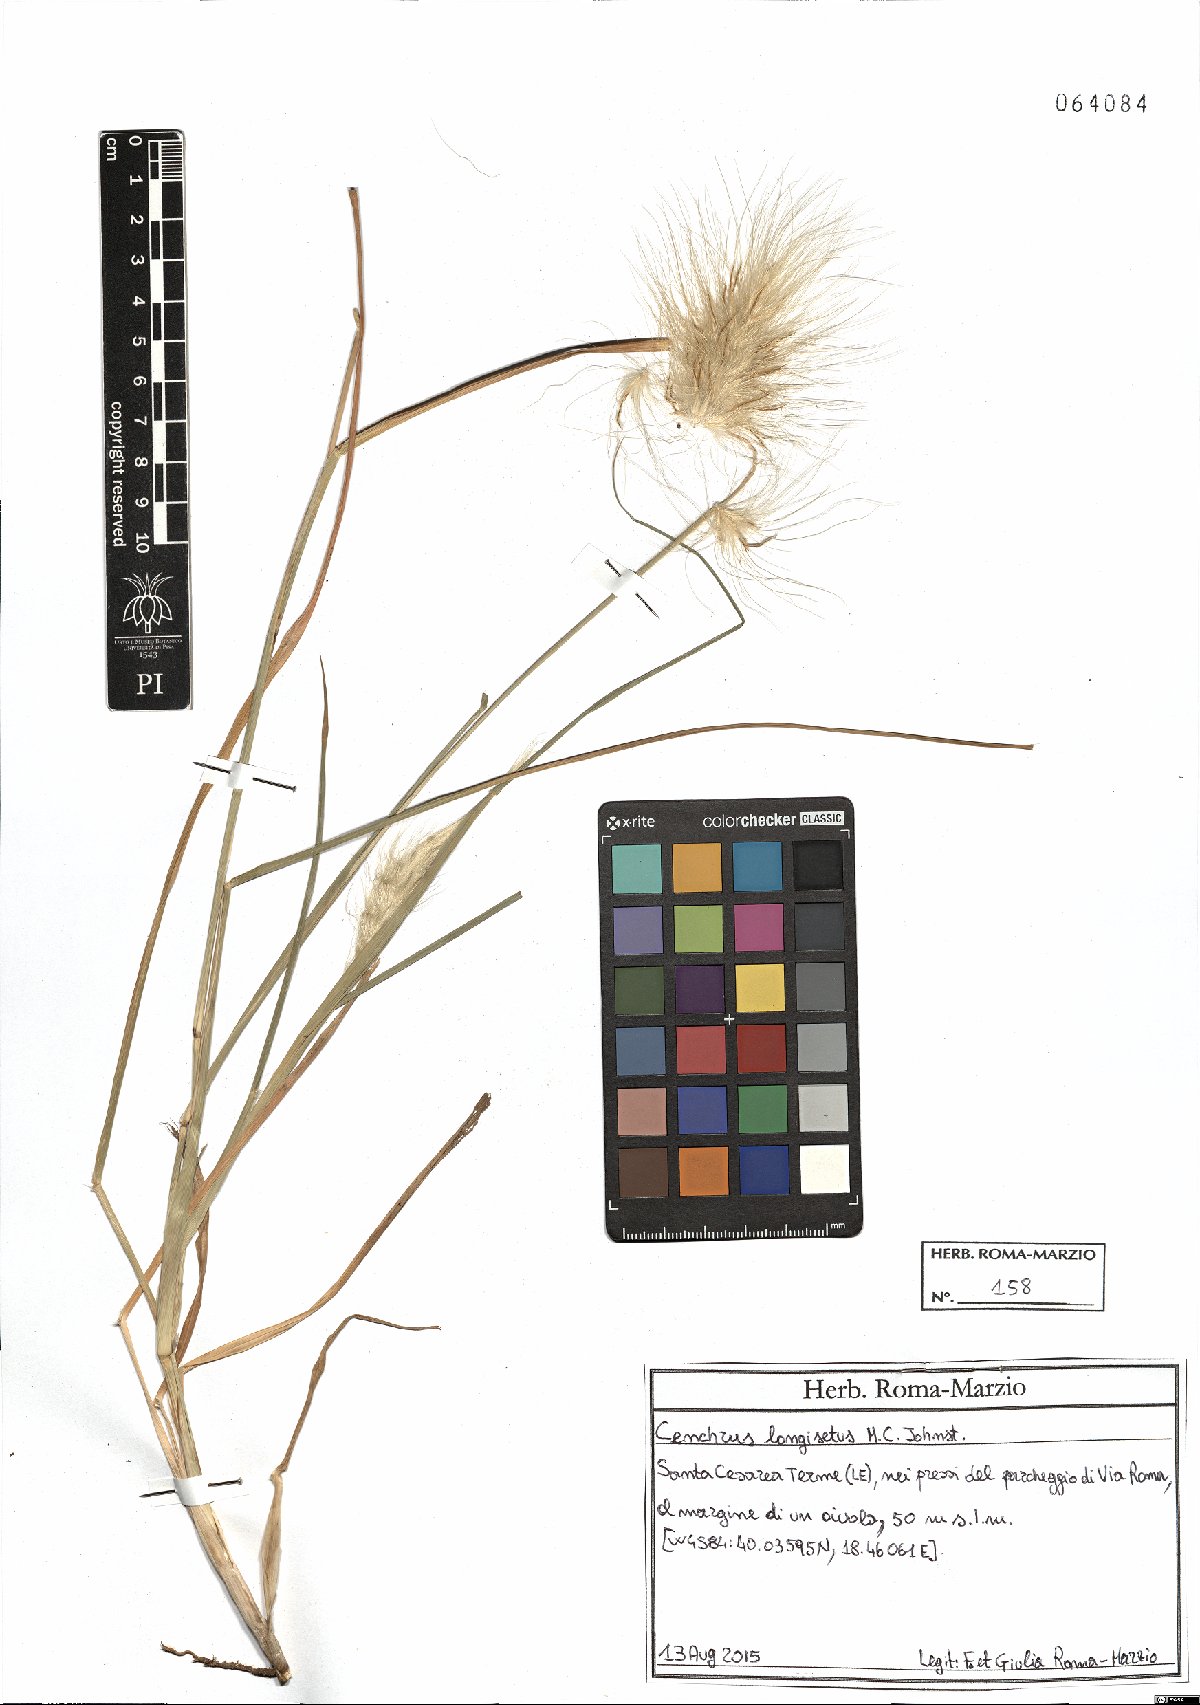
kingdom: Plantae
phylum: Tracheophyta
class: Liliopsida
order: Poales
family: Poaceae
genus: Cenchrus
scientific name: Cenchrus longisetus
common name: Feathertop
